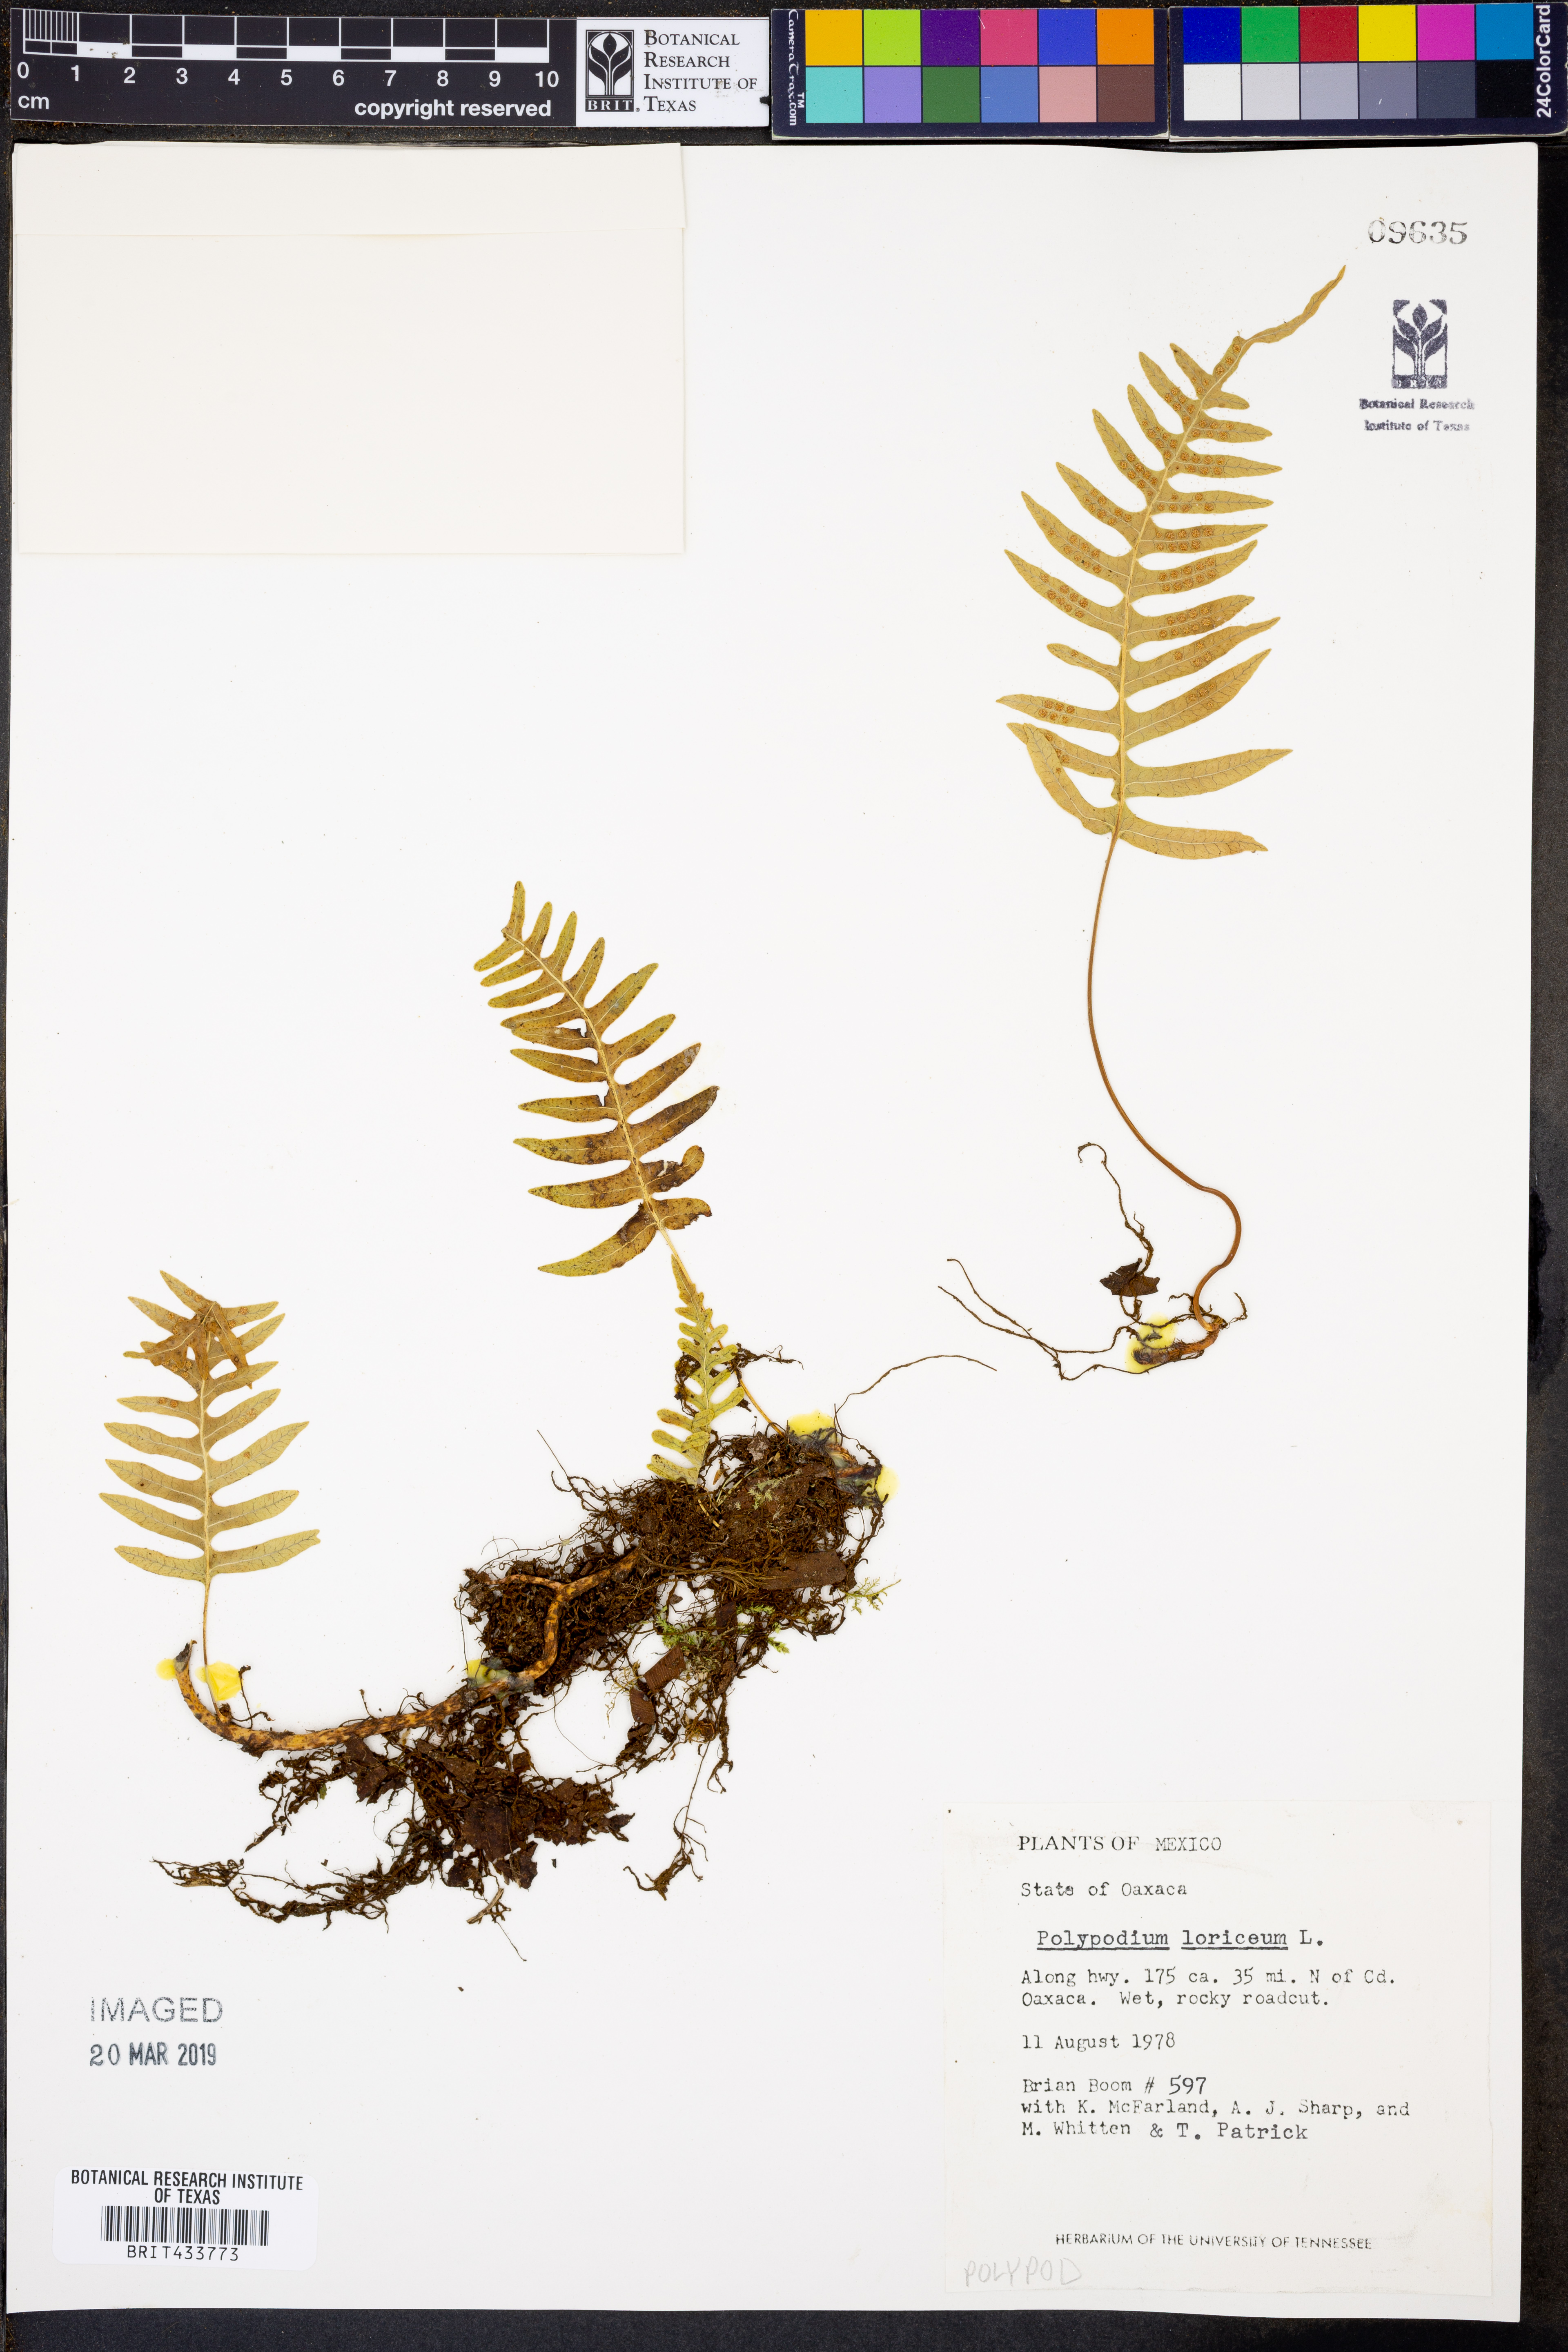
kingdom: Plantae
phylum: Tracheophyta
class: Polypodiopsida
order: Polypodiales
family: Polypodiaceae
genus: Serpocaulon
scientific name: Serpocaulon loriceum
